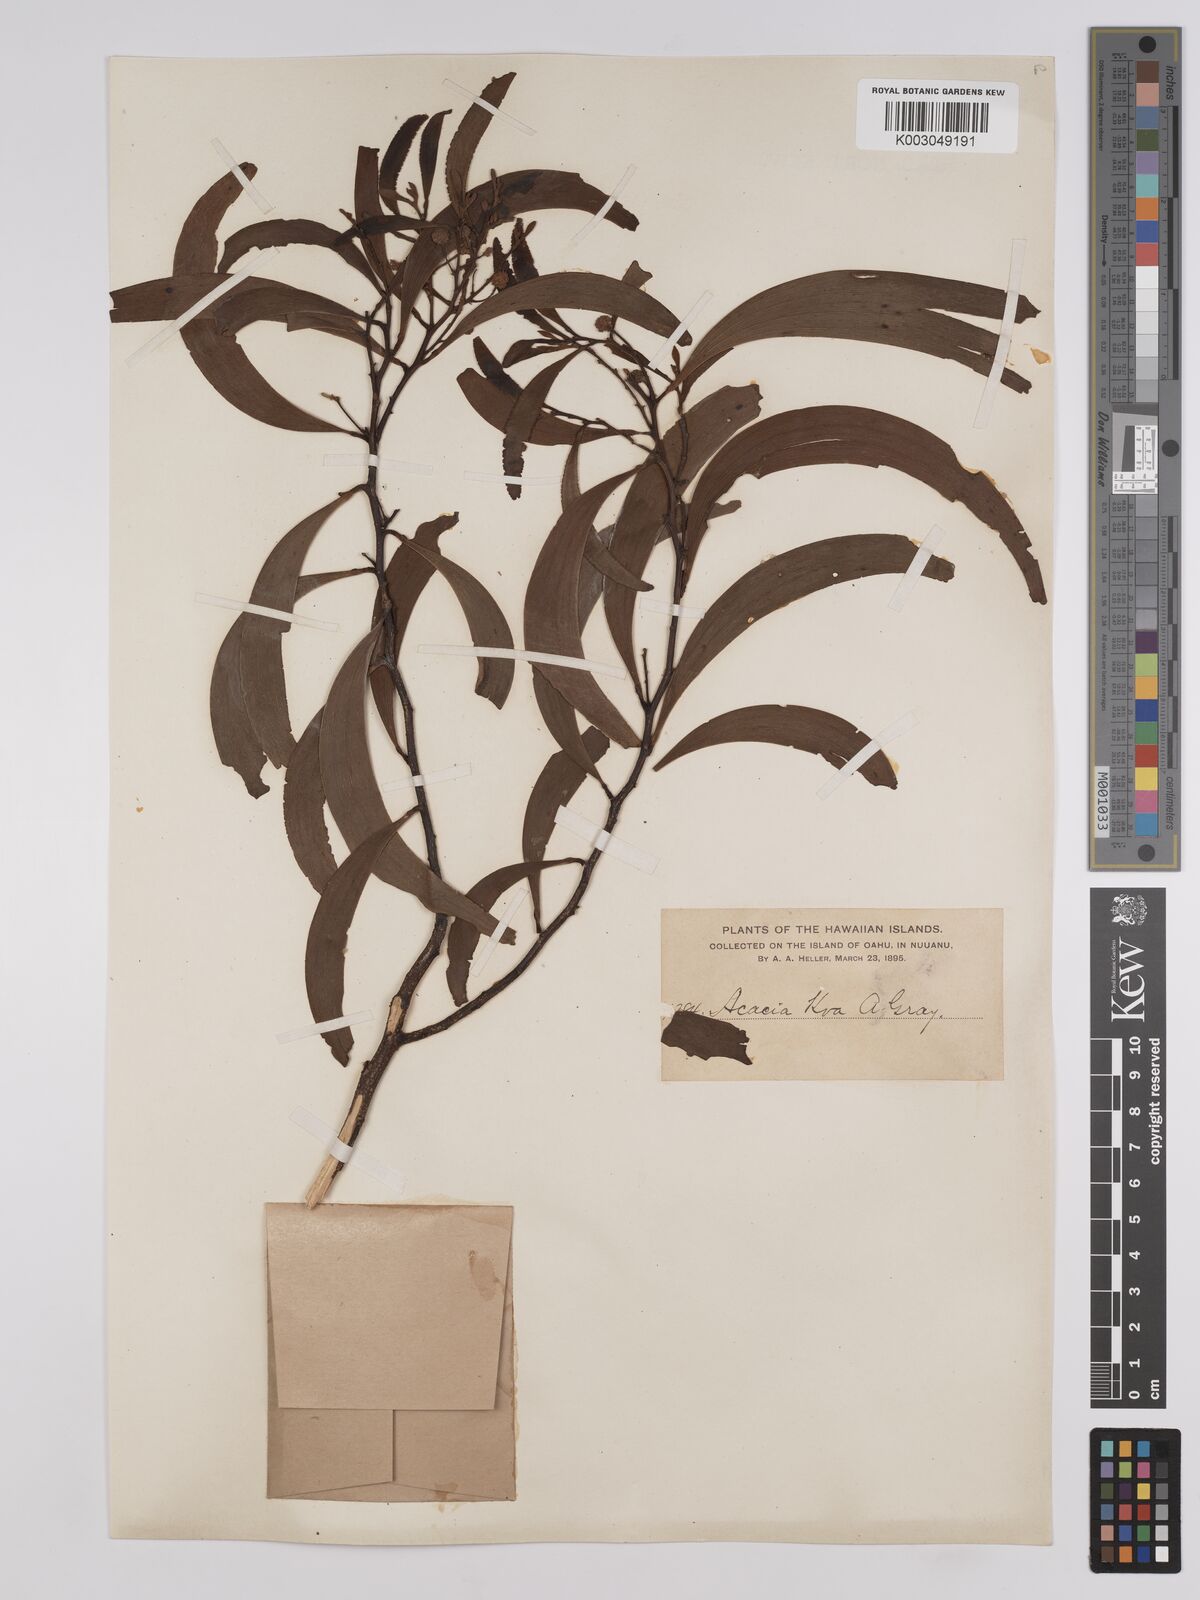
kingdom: Plantae
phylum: Tracheophyta
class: Magnoliopsida
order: Fabales
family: Fabaceae
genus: Acacia
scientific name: Acacia koa
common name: Gray koa
